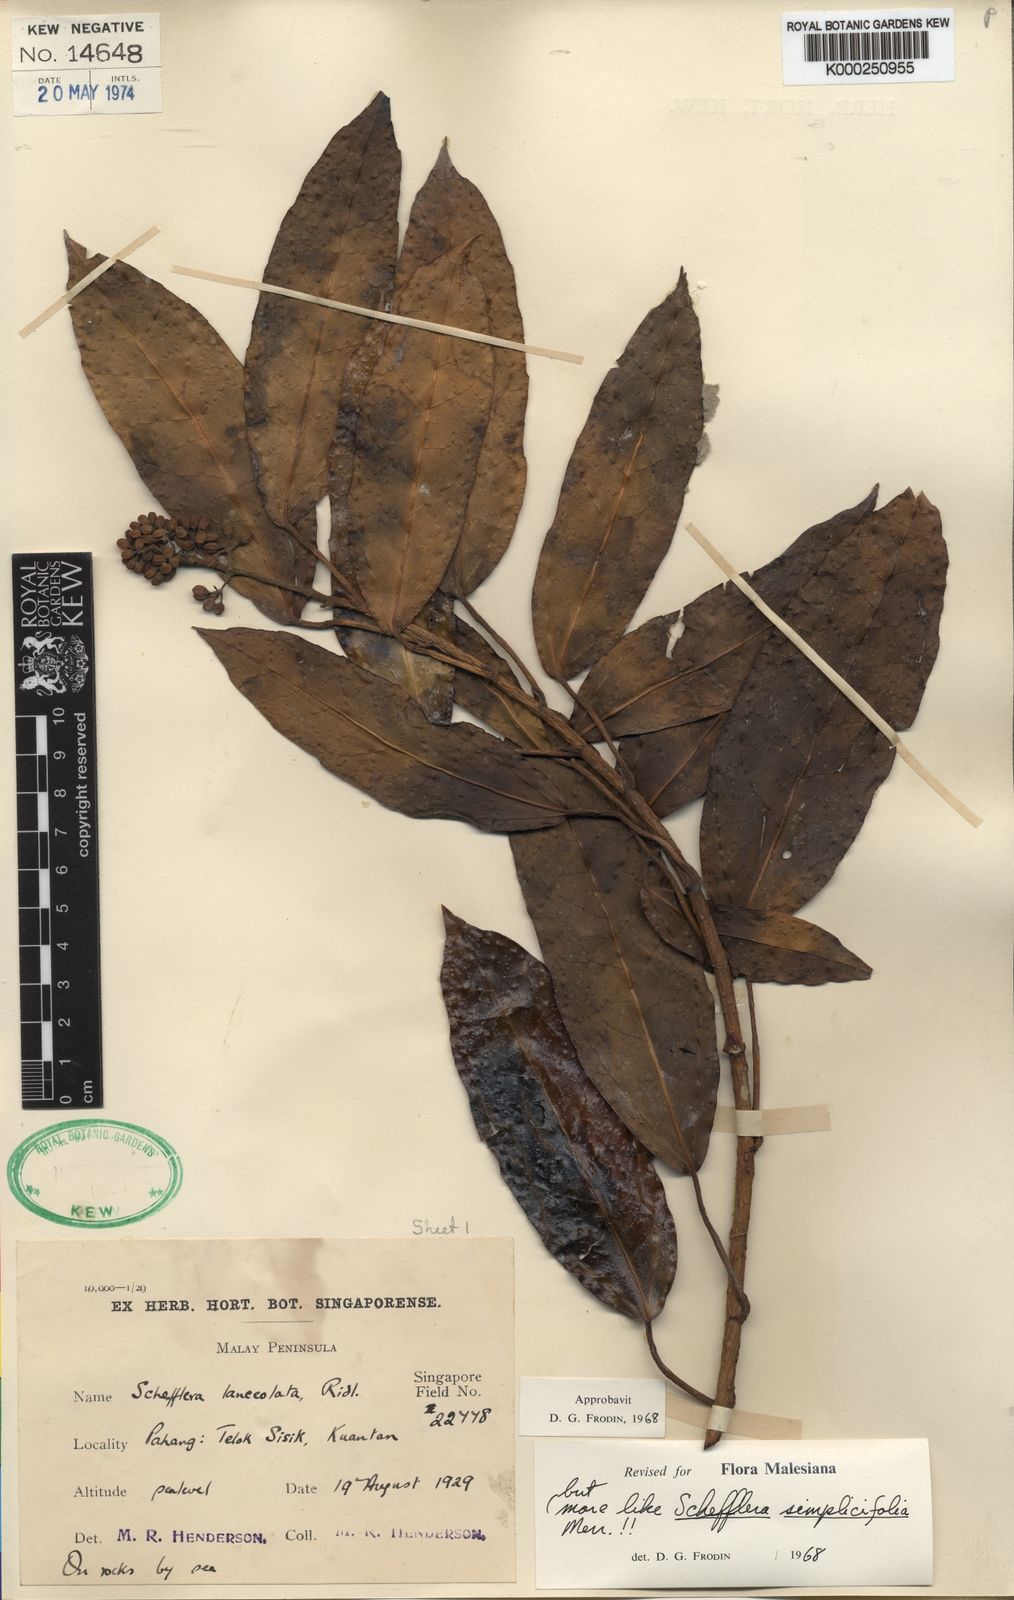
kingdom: Plantae
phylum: Tracheophyta
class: Magnoliopsida
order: Apiales
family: Araliaceae
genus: Heptapleurum
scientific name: Heptapleurum lanceolatum
